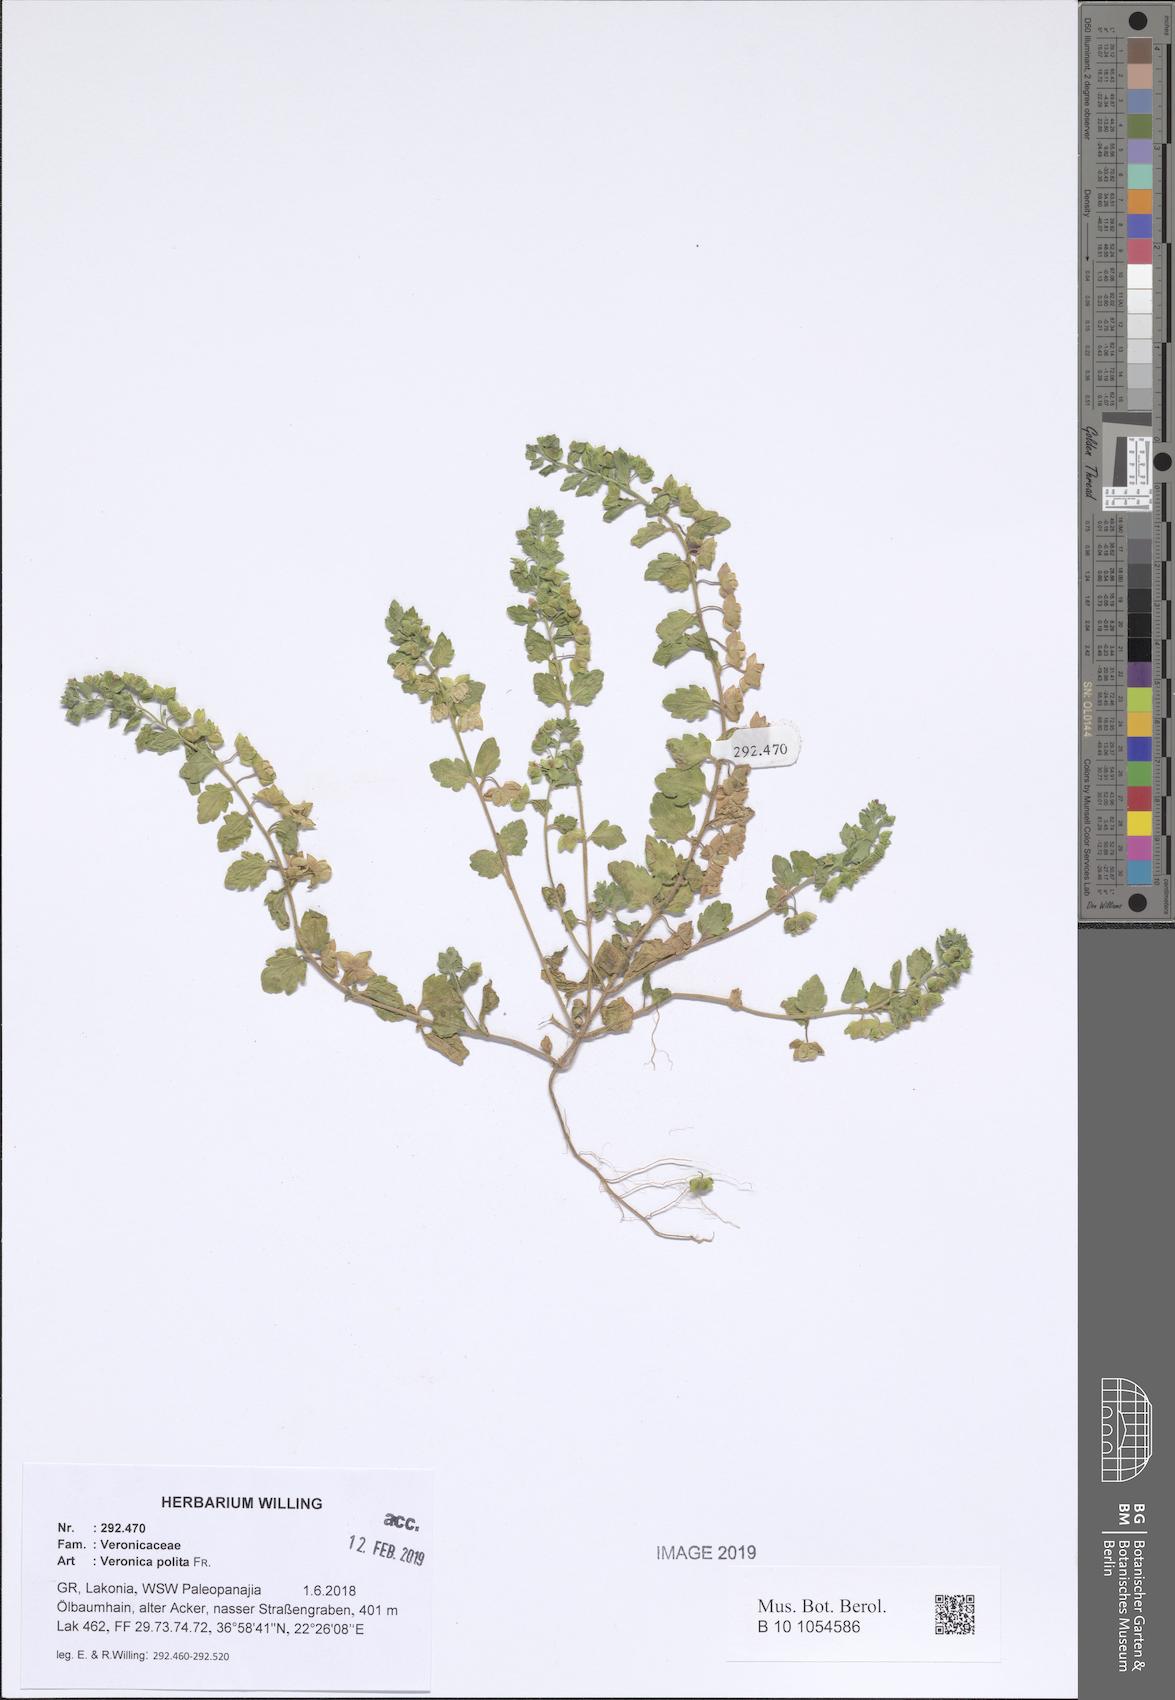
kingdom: Plantae
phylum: Tracheophyta
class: Magnoliopsida
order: Lamiales
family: Plantaginaceae
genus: Veronica
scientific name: Veronica polita
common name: Grey field-speedwell
